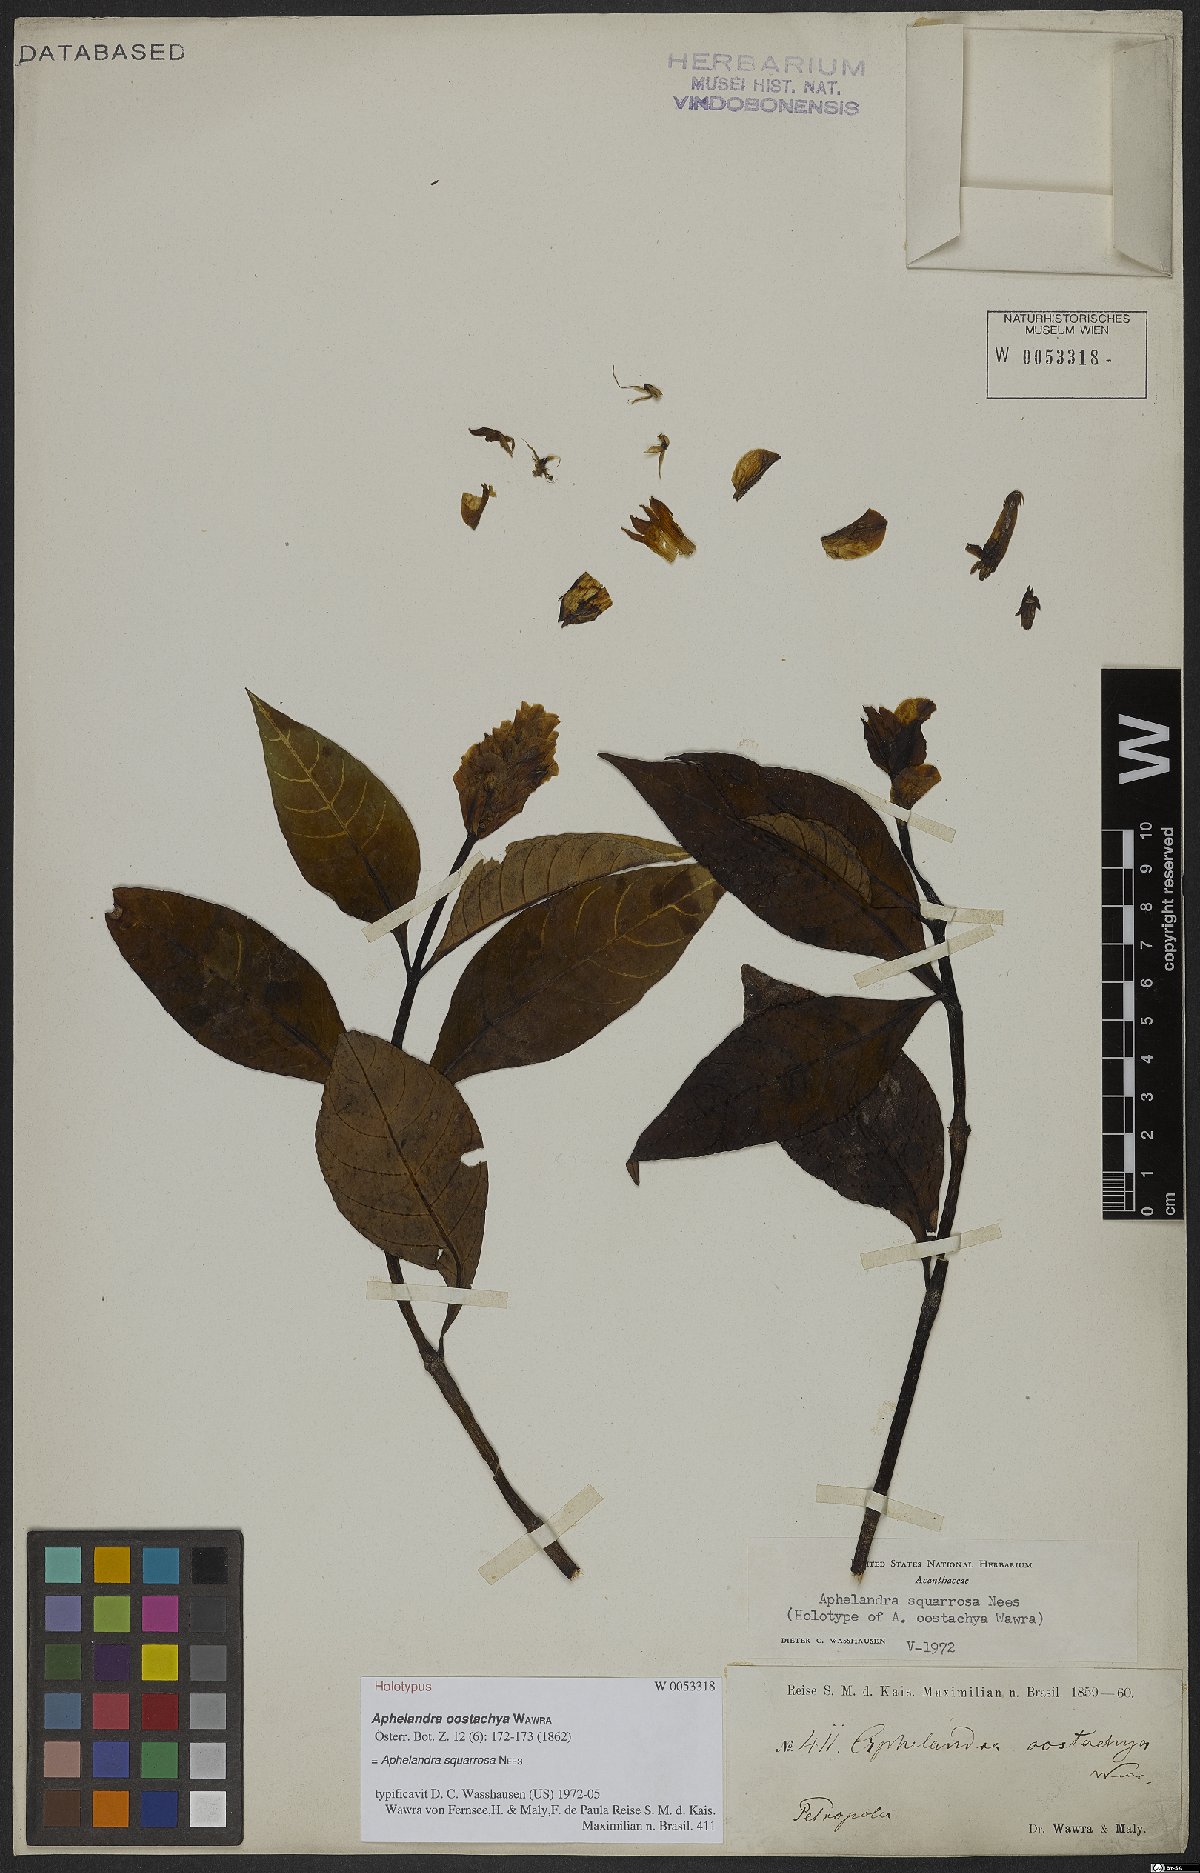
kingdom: Plantae
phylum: Tracheophyta
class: Magnoliopsida
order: Lamiales
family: Acanthaceae
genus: Aphelandra
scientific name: Aphelandra squarrosa
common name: Saffron spike
